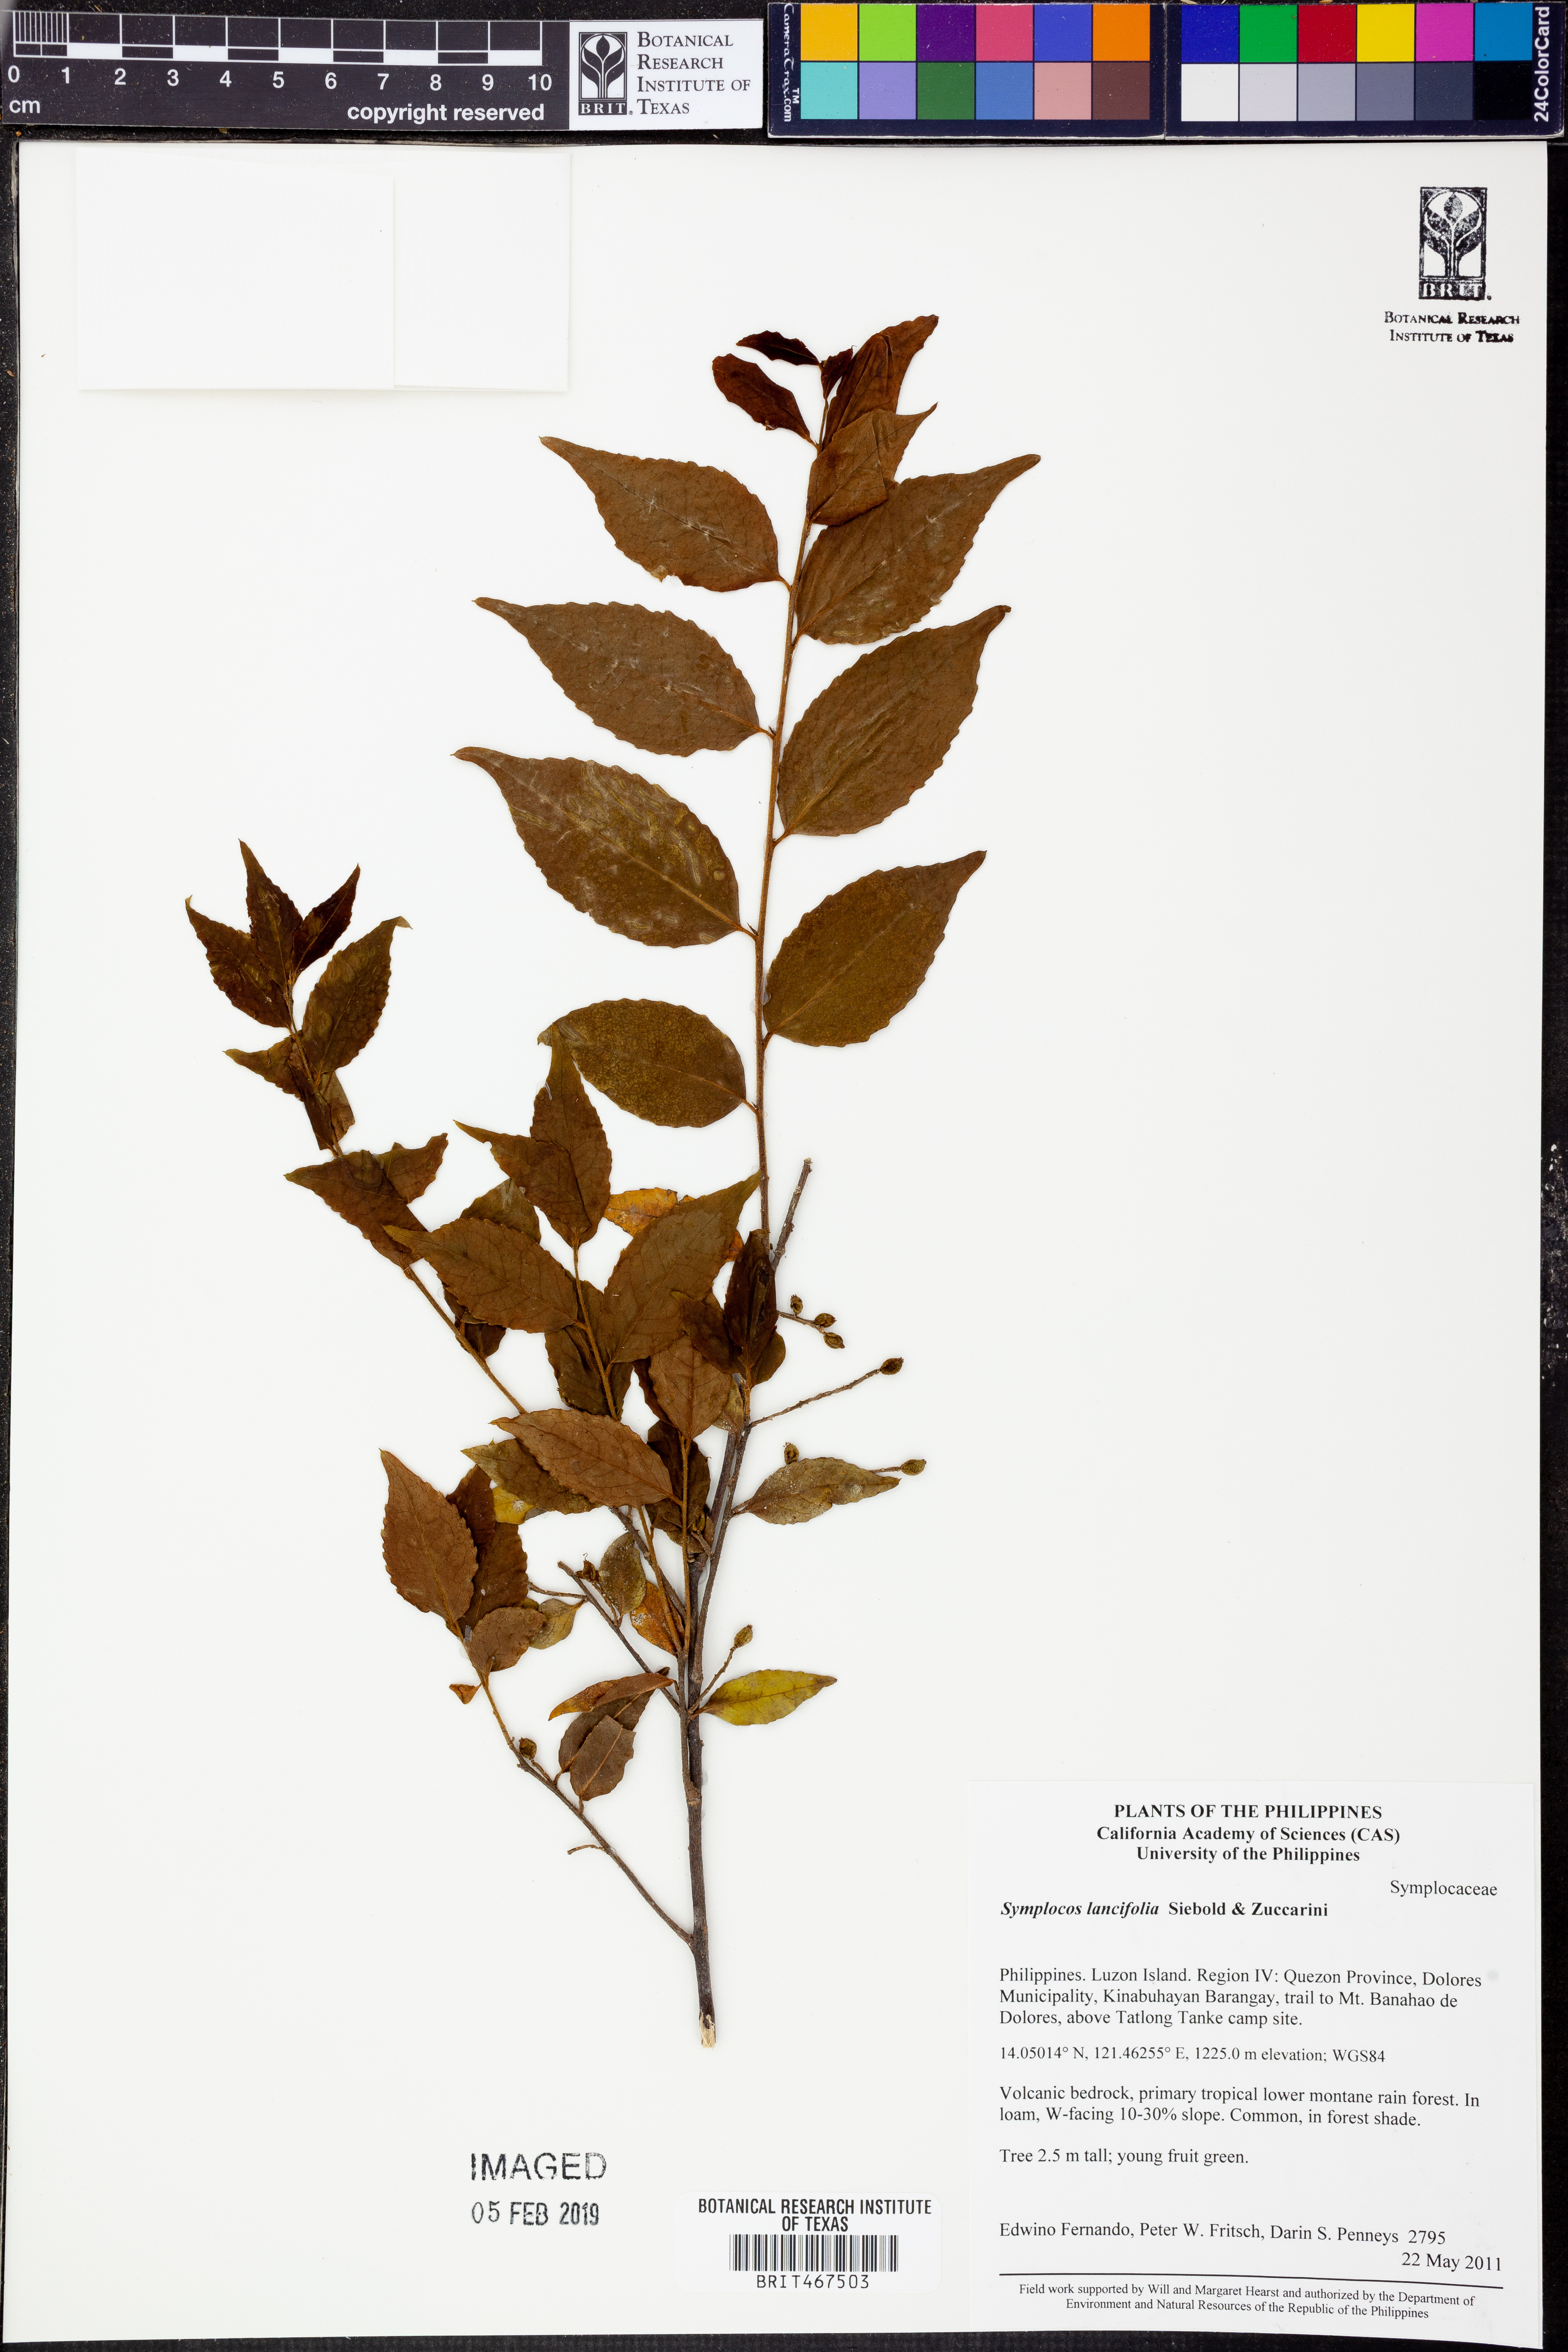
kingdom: Plantae
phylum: Tracheophyta
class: Magnoliopsida
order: Ericales
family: Symplocaceae
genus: Symplocos
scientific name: Symplocos lancifolia
